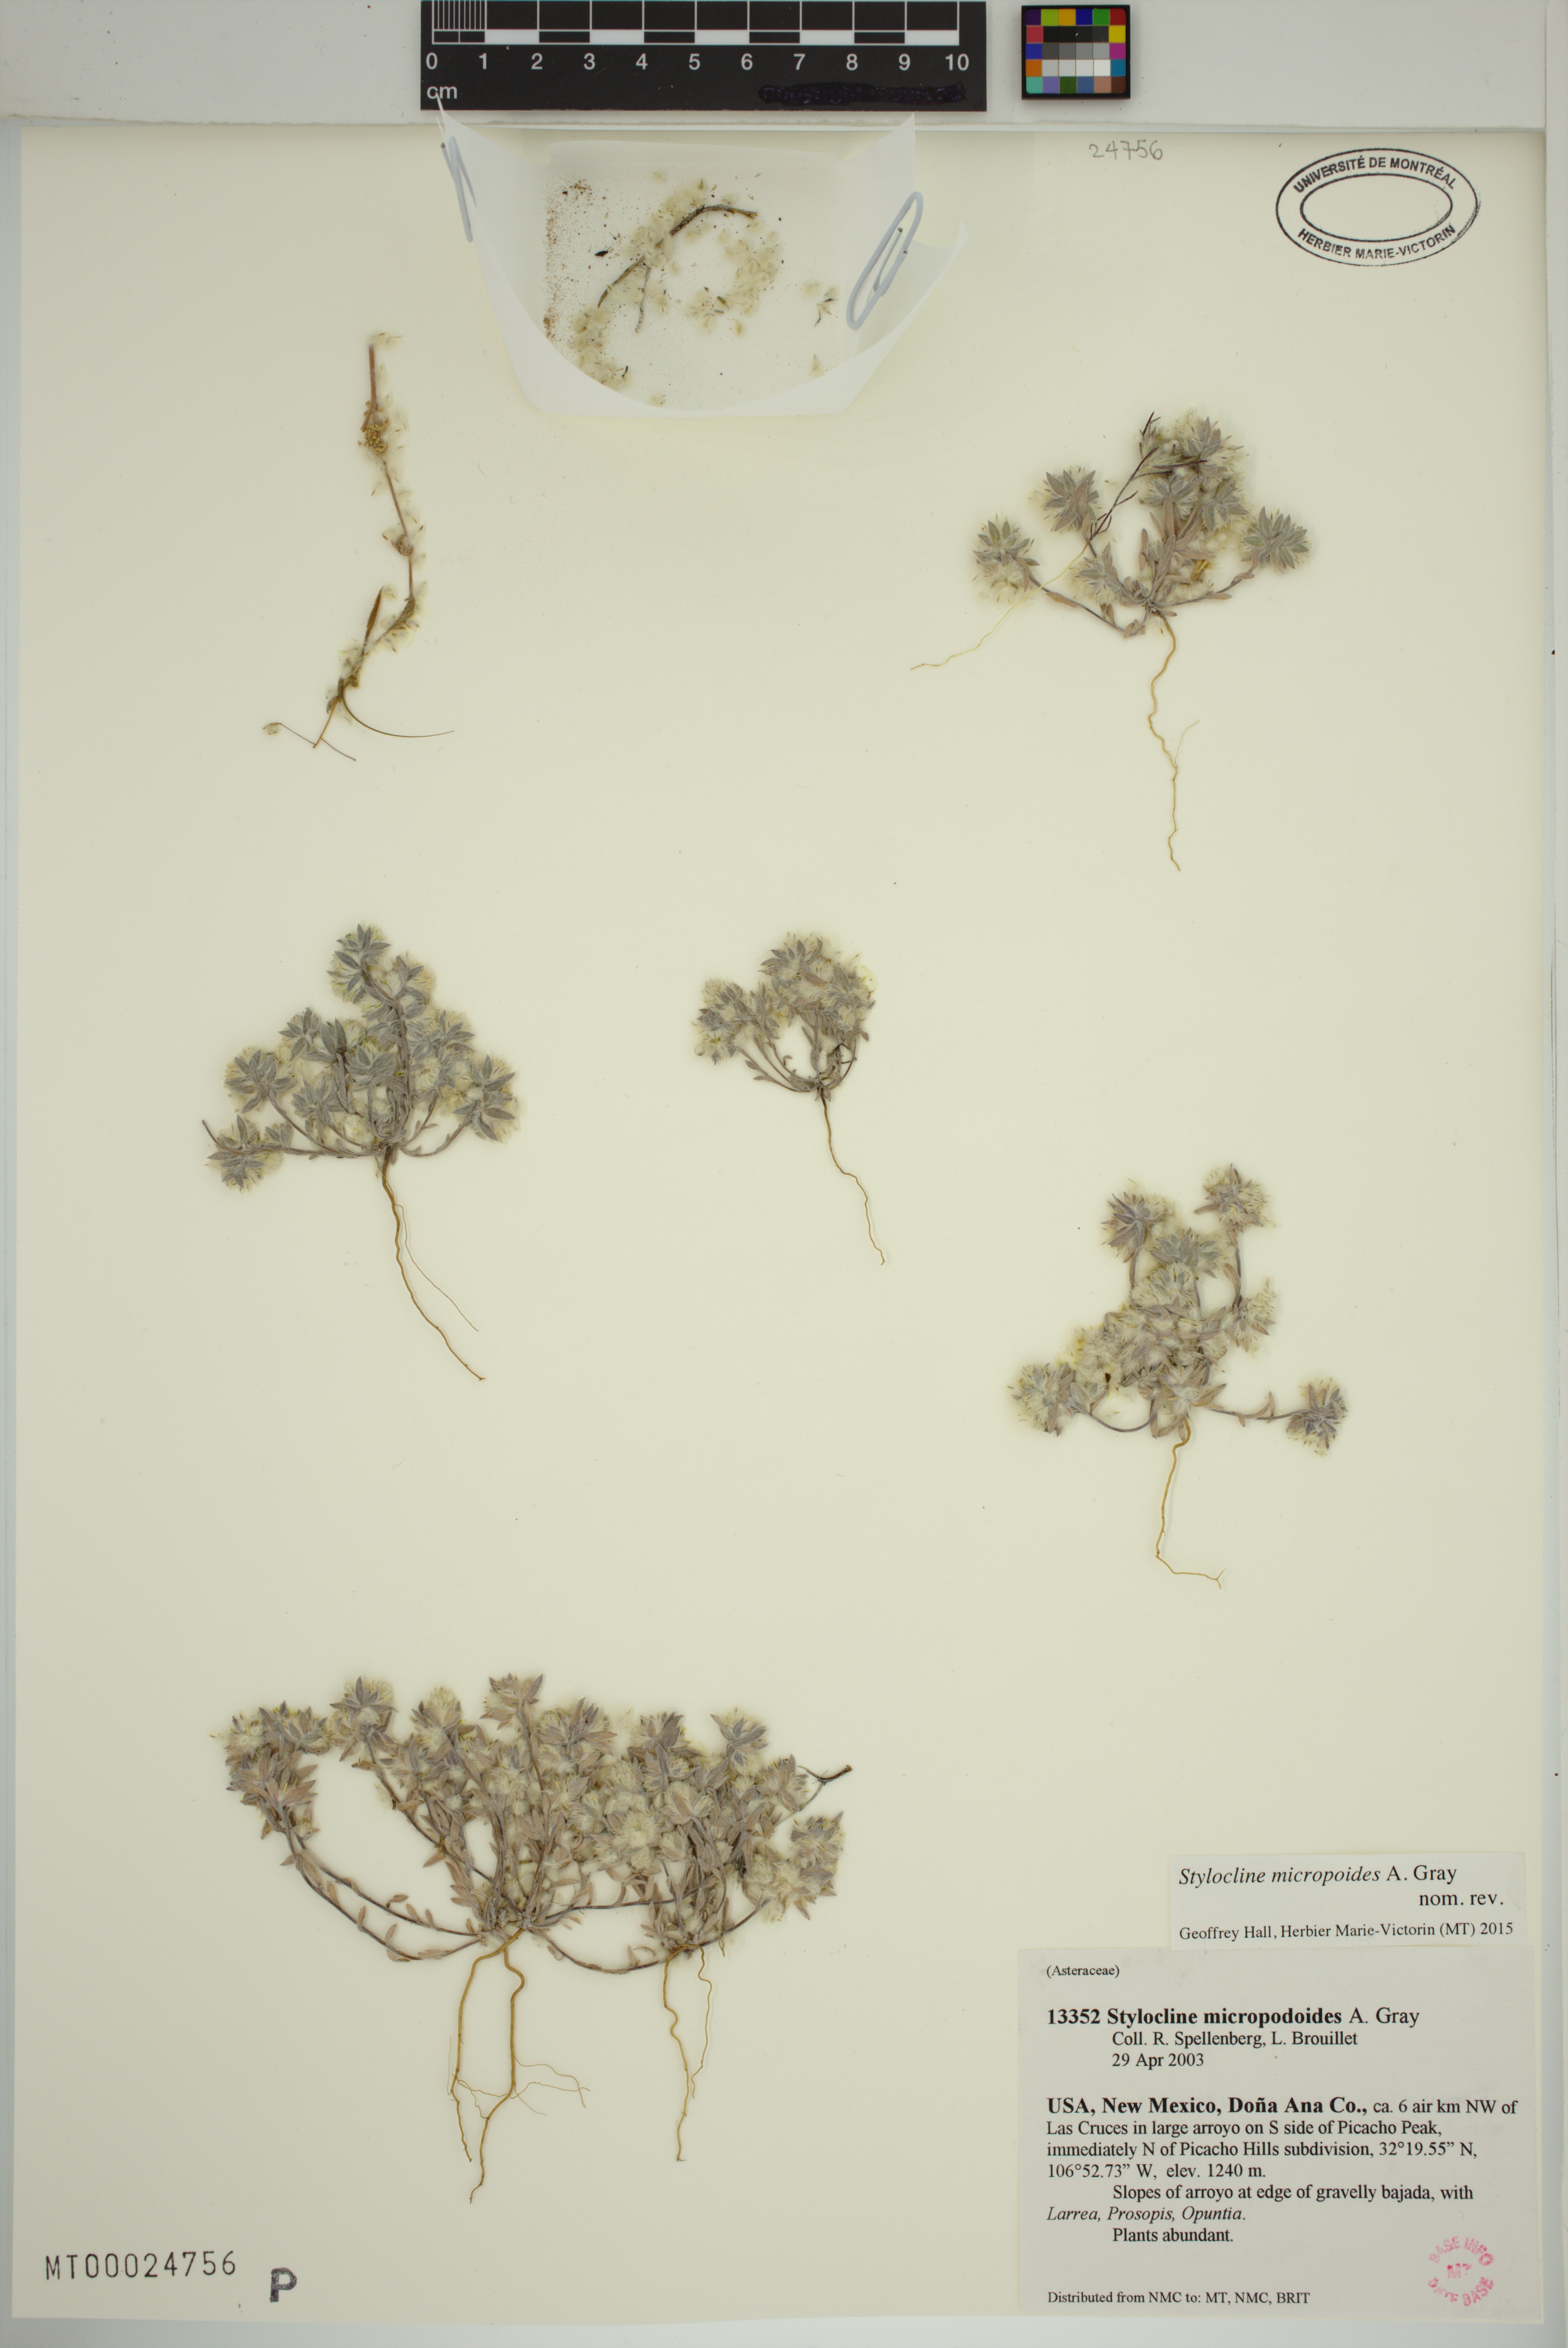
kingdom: Plantae
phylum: Tracheophyta
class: Magnoliopsida
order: Asterales
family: Asteraceae
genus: Stylocline
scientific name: Stylocline micropoides
